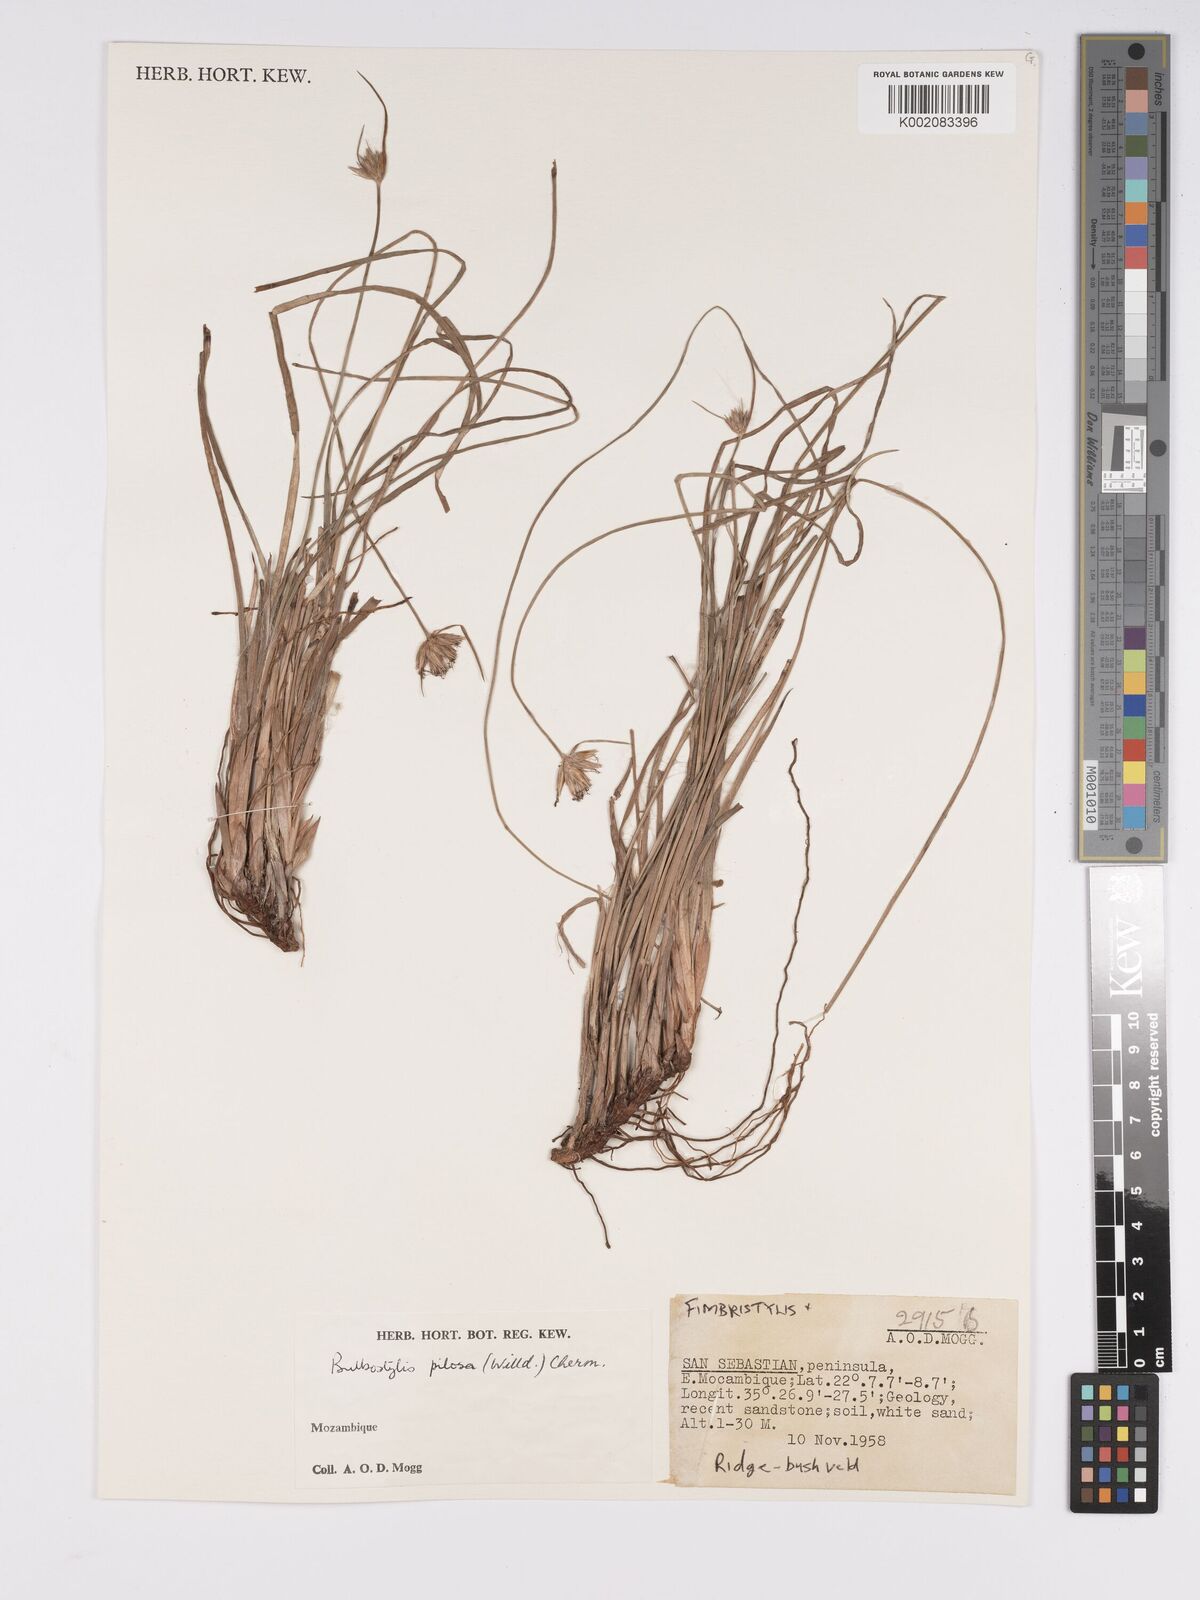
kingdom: Plantae
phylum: Tracheophyta
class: Liliopsida
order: Poales
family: Cyperaceae
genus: Bulbostylis
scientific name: Bulbostylis pilosa
